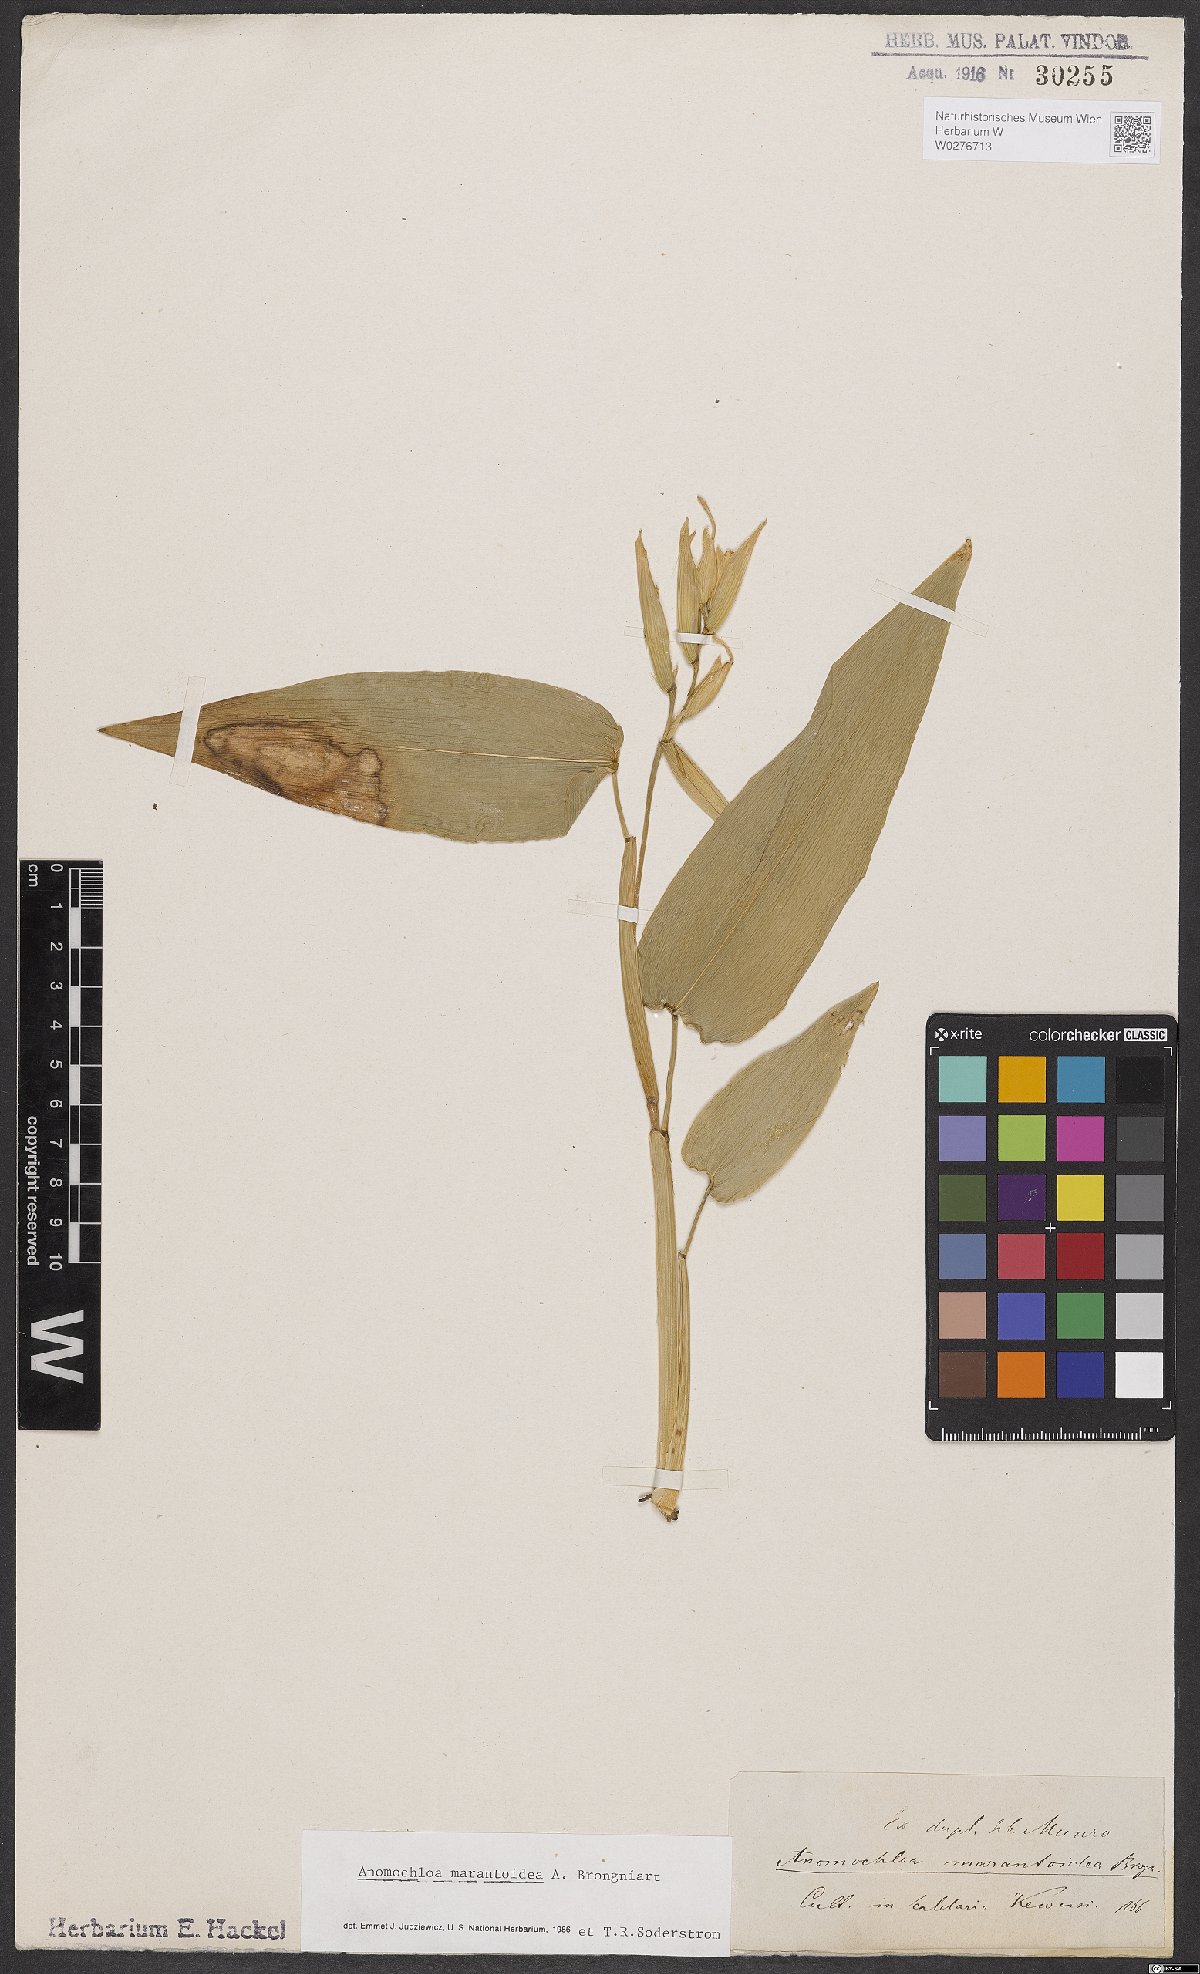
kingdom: Plantae
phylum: Tracheophyta
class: Liliopsida
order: Poales
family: Poaceae
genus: Anomochloa
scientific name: Anomochloa marantoidea
